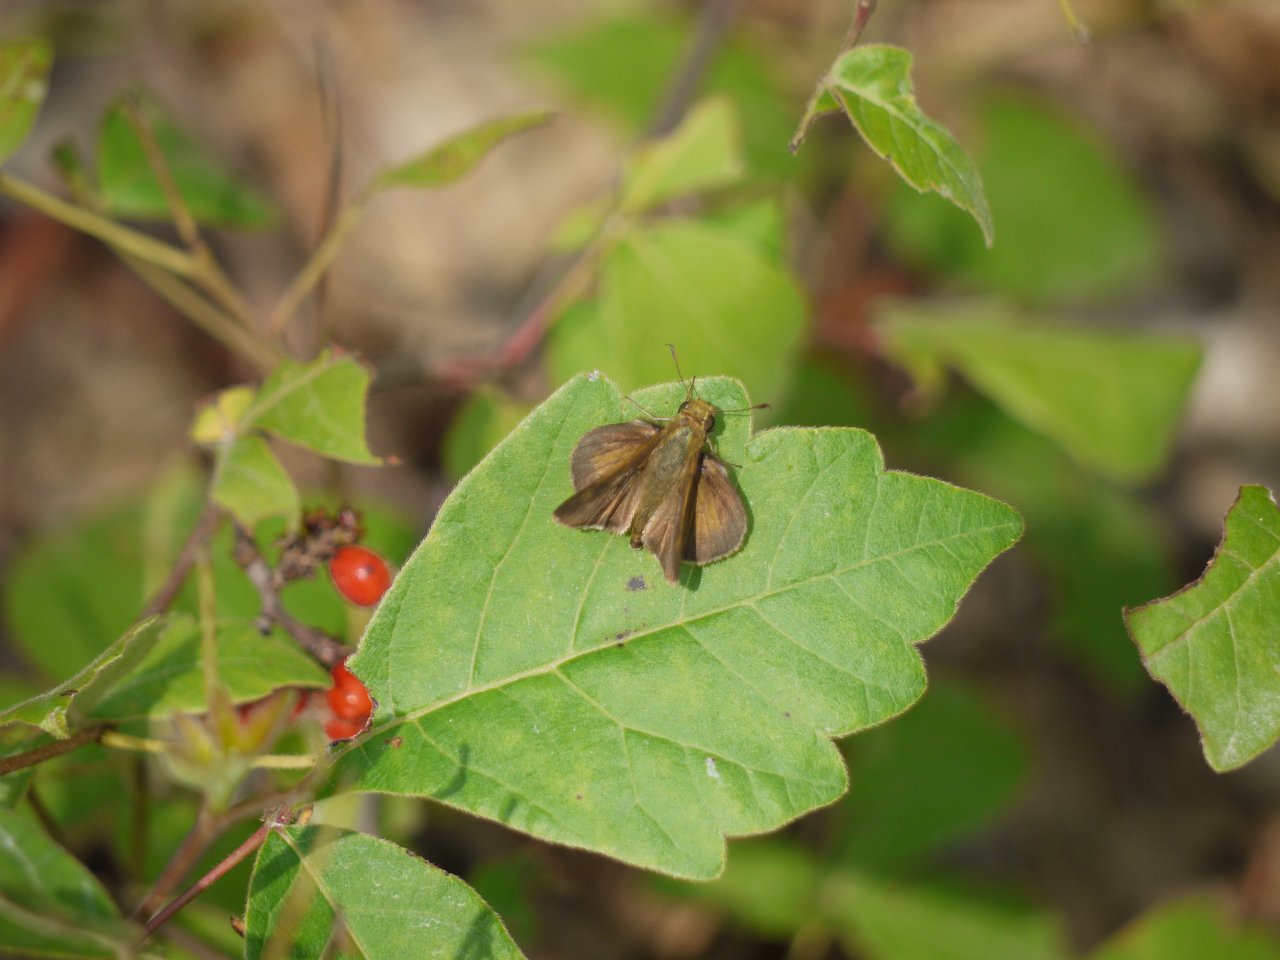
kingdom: Animalia
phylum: Arthropoda
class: Insecta
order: Lepidoptera
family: Hesperiidae
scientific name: Hesperiidae
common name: Skippers
